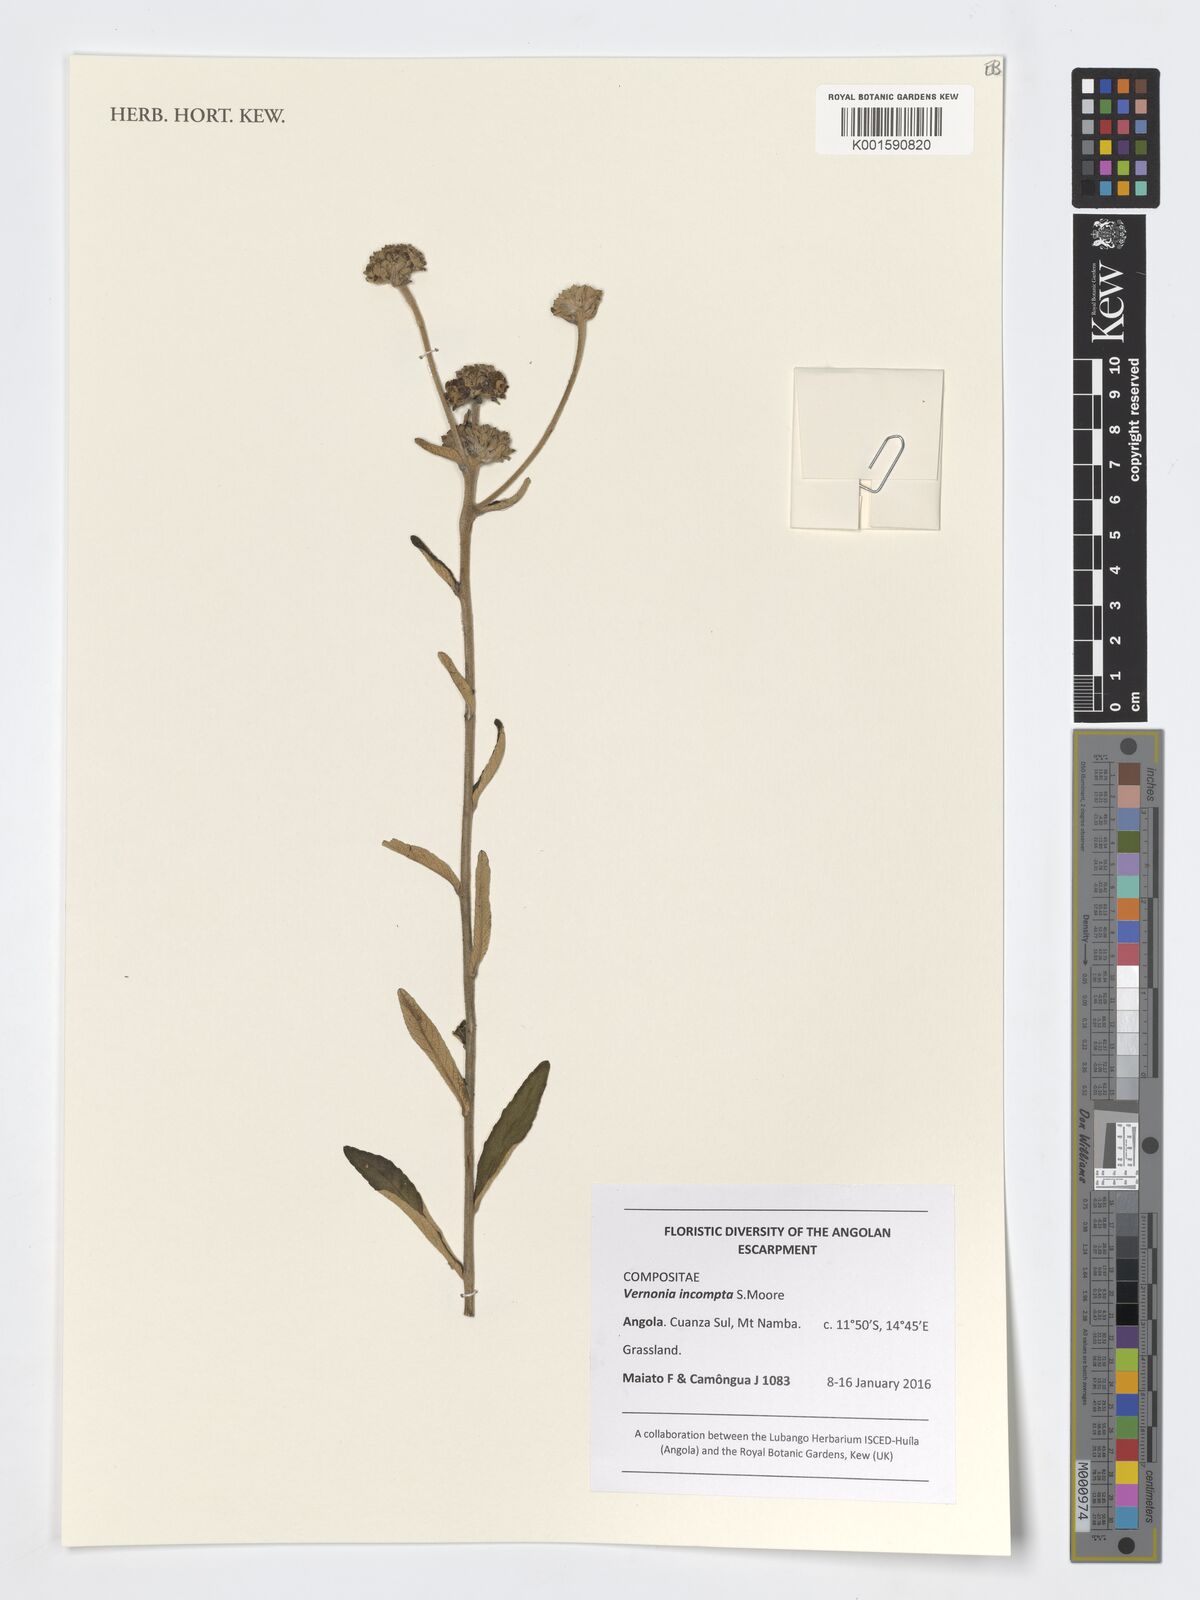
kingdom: Plantae
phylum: Tracheophyta
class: Magnoliopsida
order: Asterales
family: Asteraceae
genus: Baccharoides
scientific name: Baccharoides incompta
